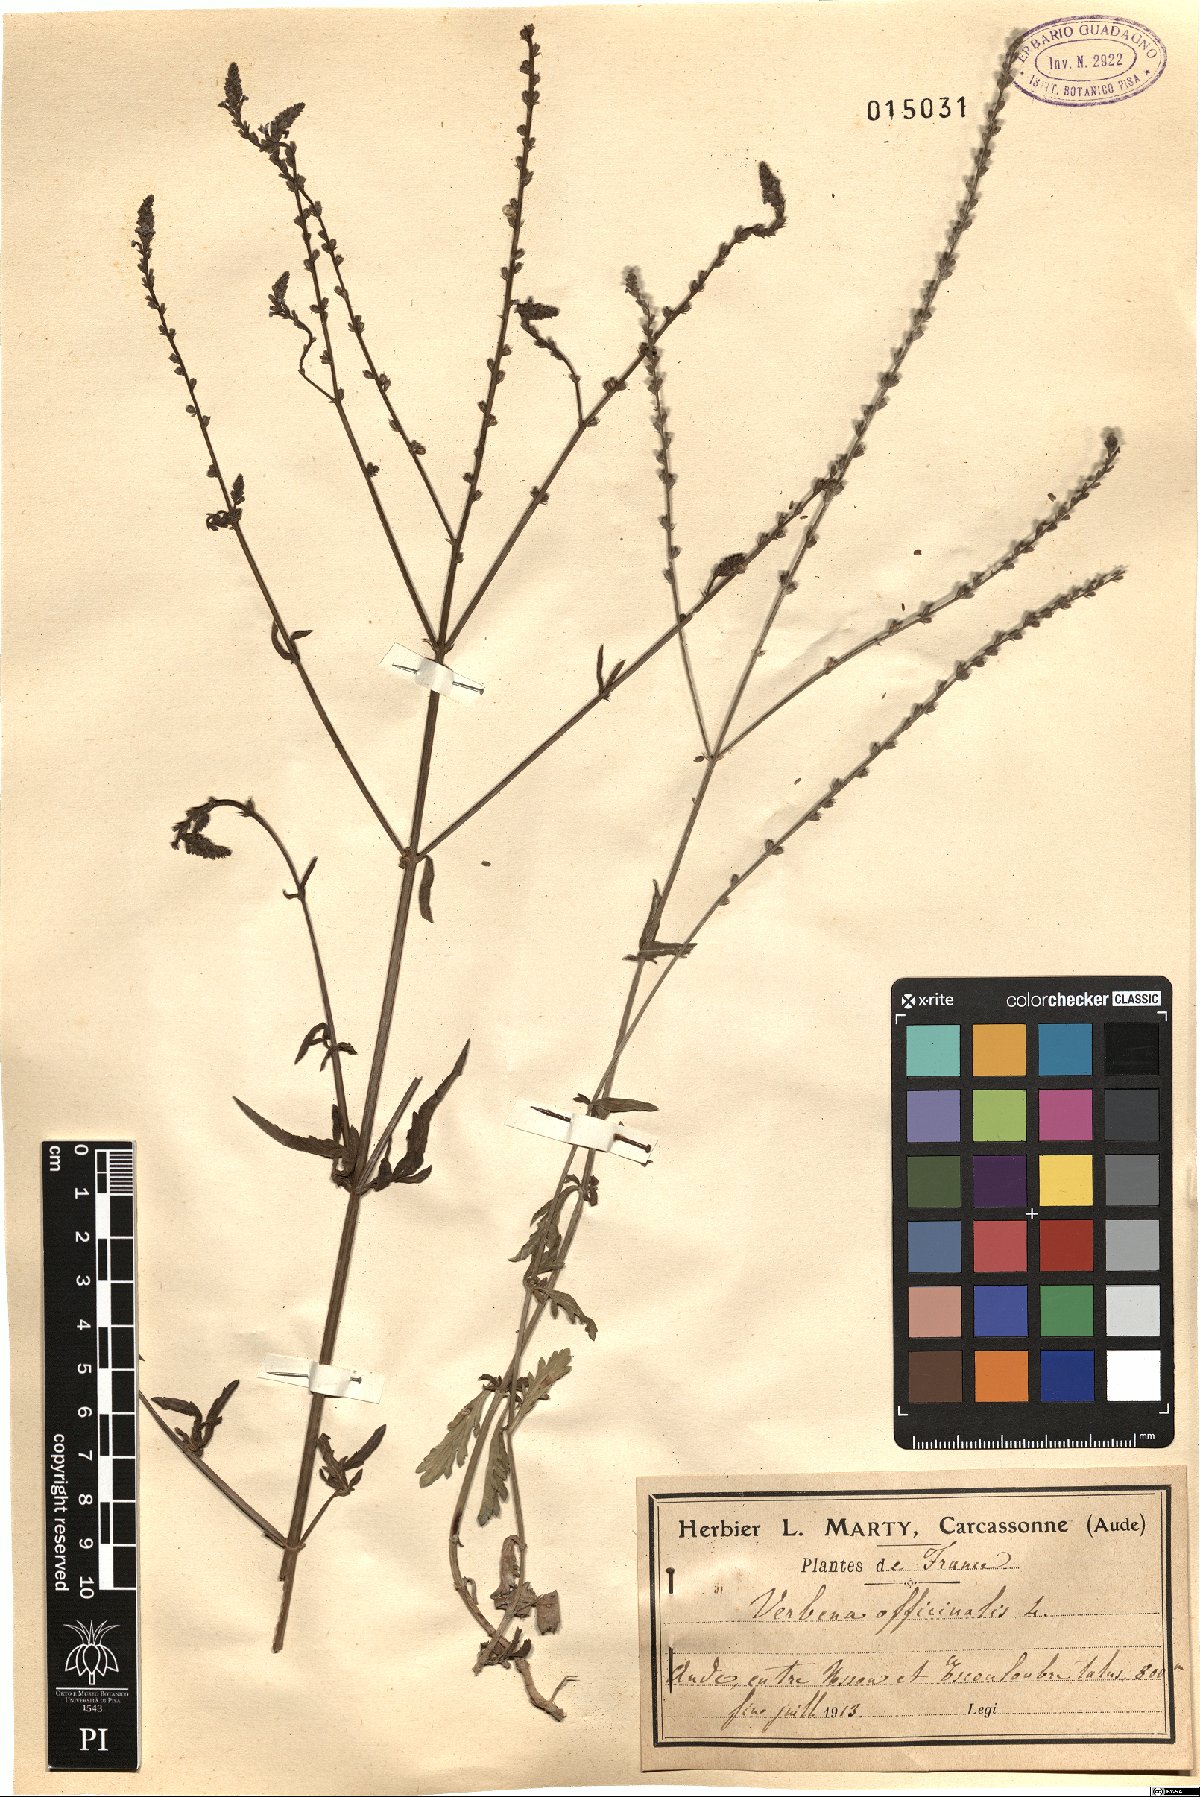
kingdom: Plantae
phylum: Tracheophyta
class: Magnoliopsida
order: Lamiales
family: Verbenaceae
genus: Verbena
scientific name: Verbena officinalis
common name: Vervain
